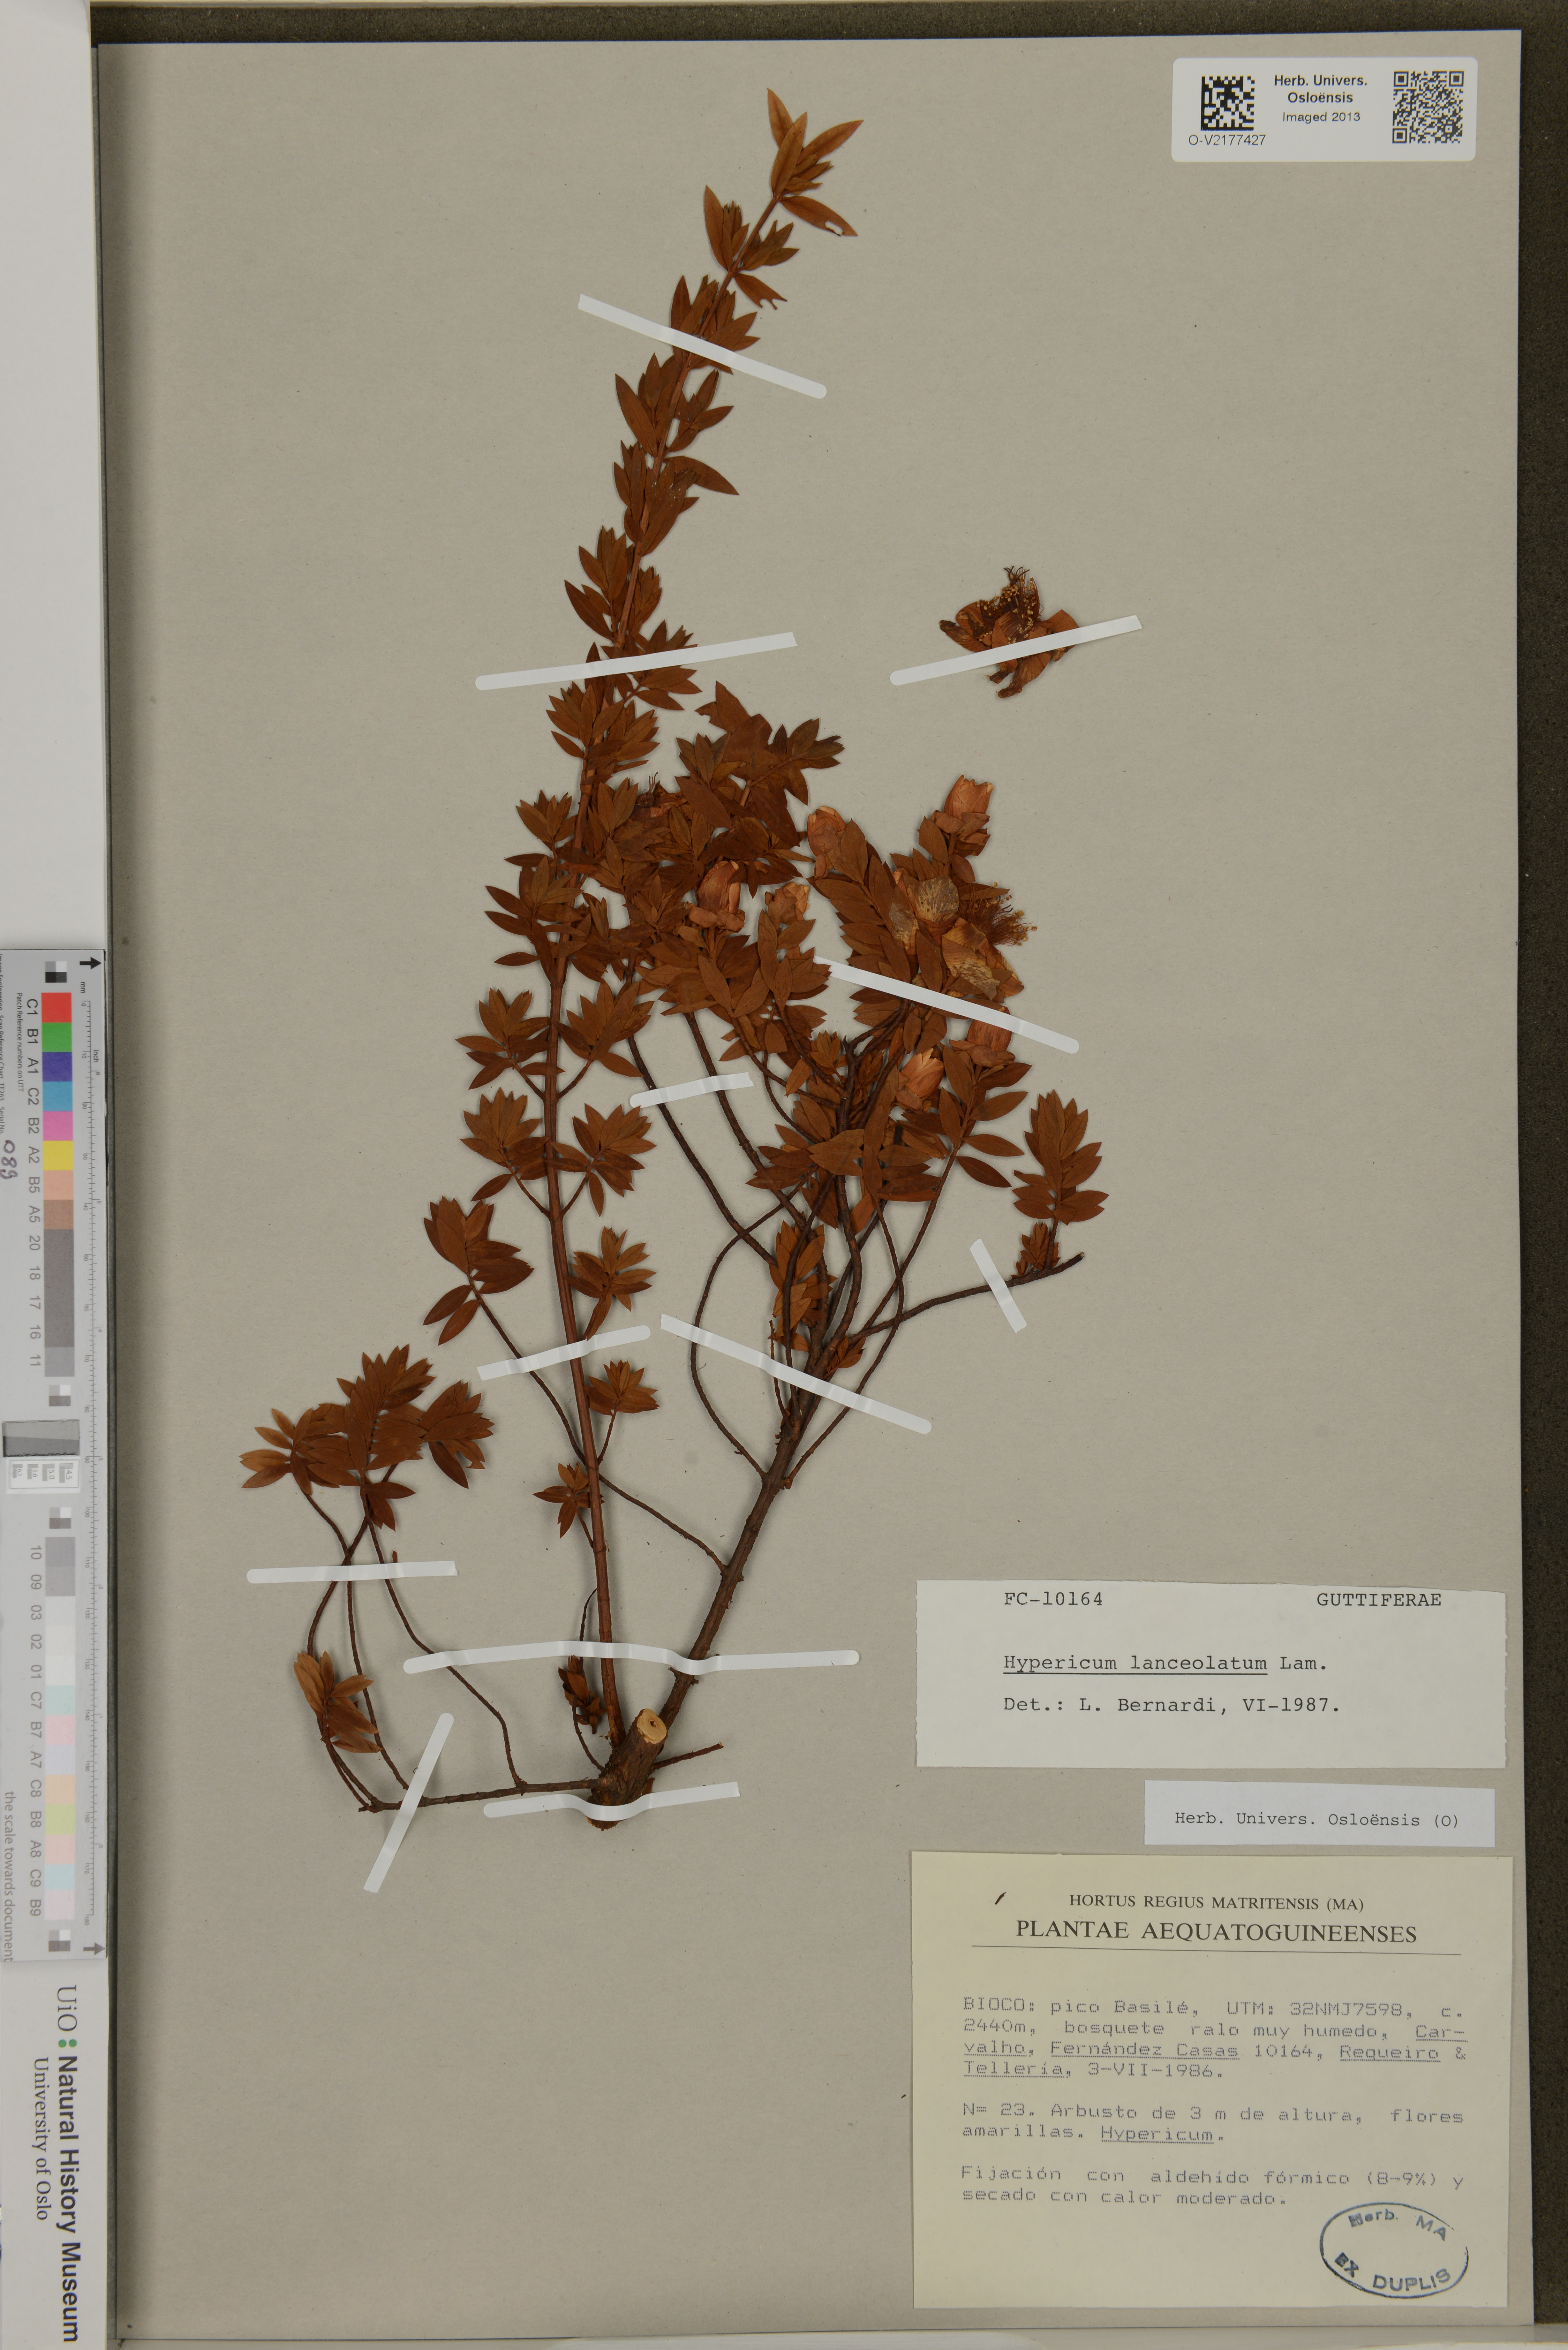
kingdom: Plantae
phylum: Tracheophyta
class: Magnoliopsida
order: Malpighiales
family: Hypericaceae
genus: Hypericum
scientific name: Hypericum lanceolatum
